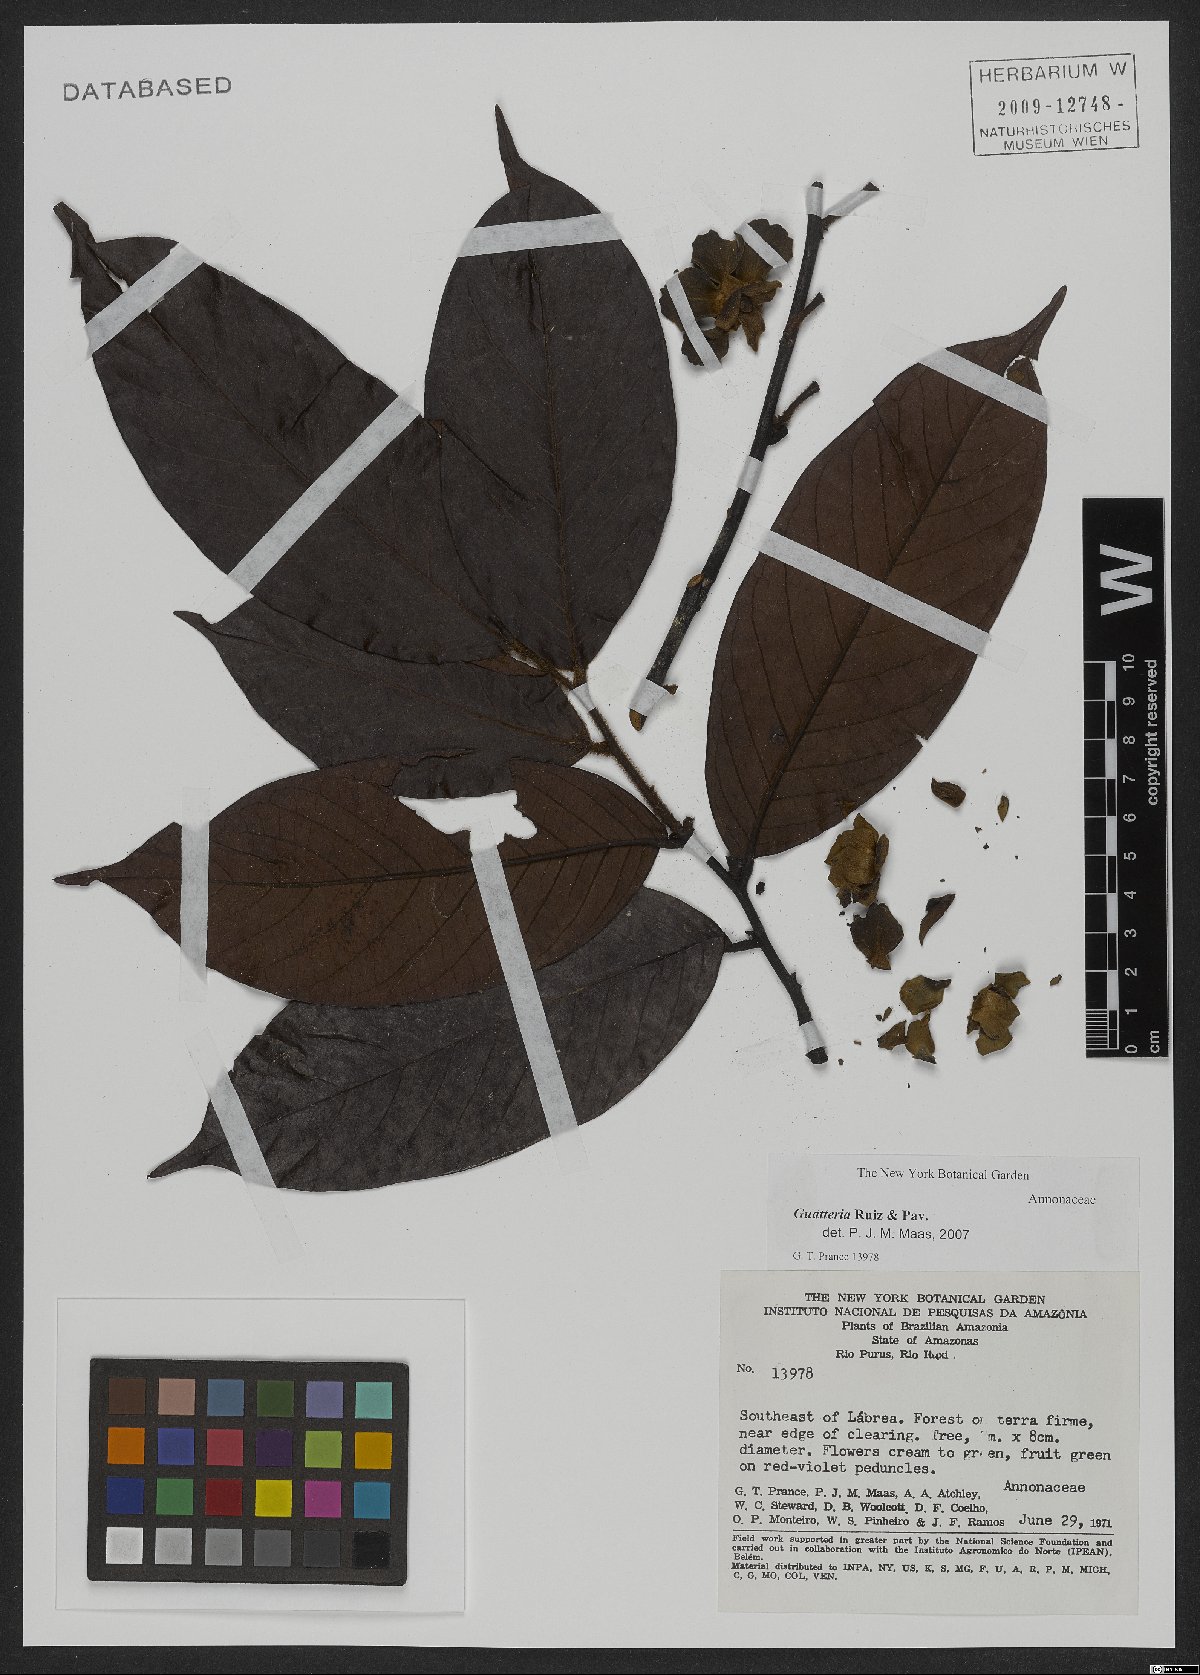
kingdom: Plantae
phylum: Tracheophyta
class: Magnoliopsida
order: Magnoliales
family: Annonaceae
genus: Guatteria
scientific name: Guatteria
